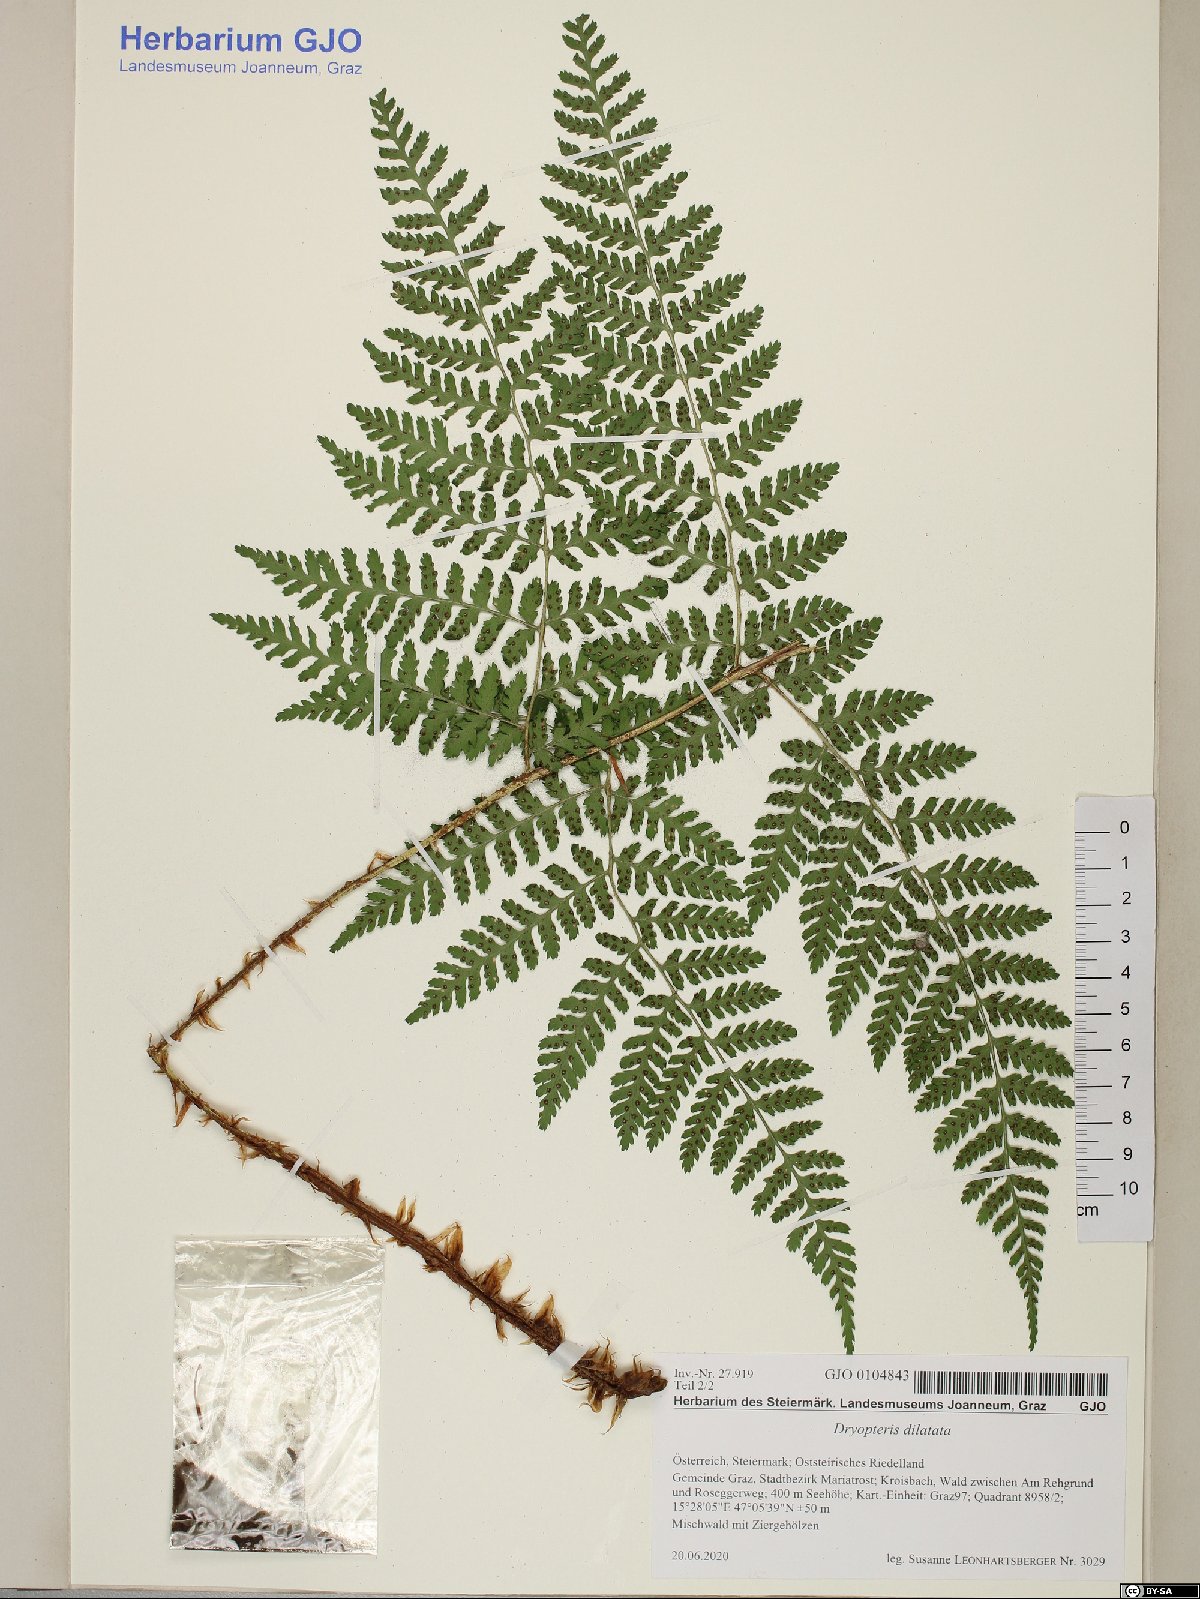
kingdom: Plantae
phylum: Tracheophyta
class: Polypodiopsida
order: Polypodiales
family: Dryopteridaceae
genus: Dryopteris
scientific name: Dryopteris dilatata
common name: Broad buckler-fern
